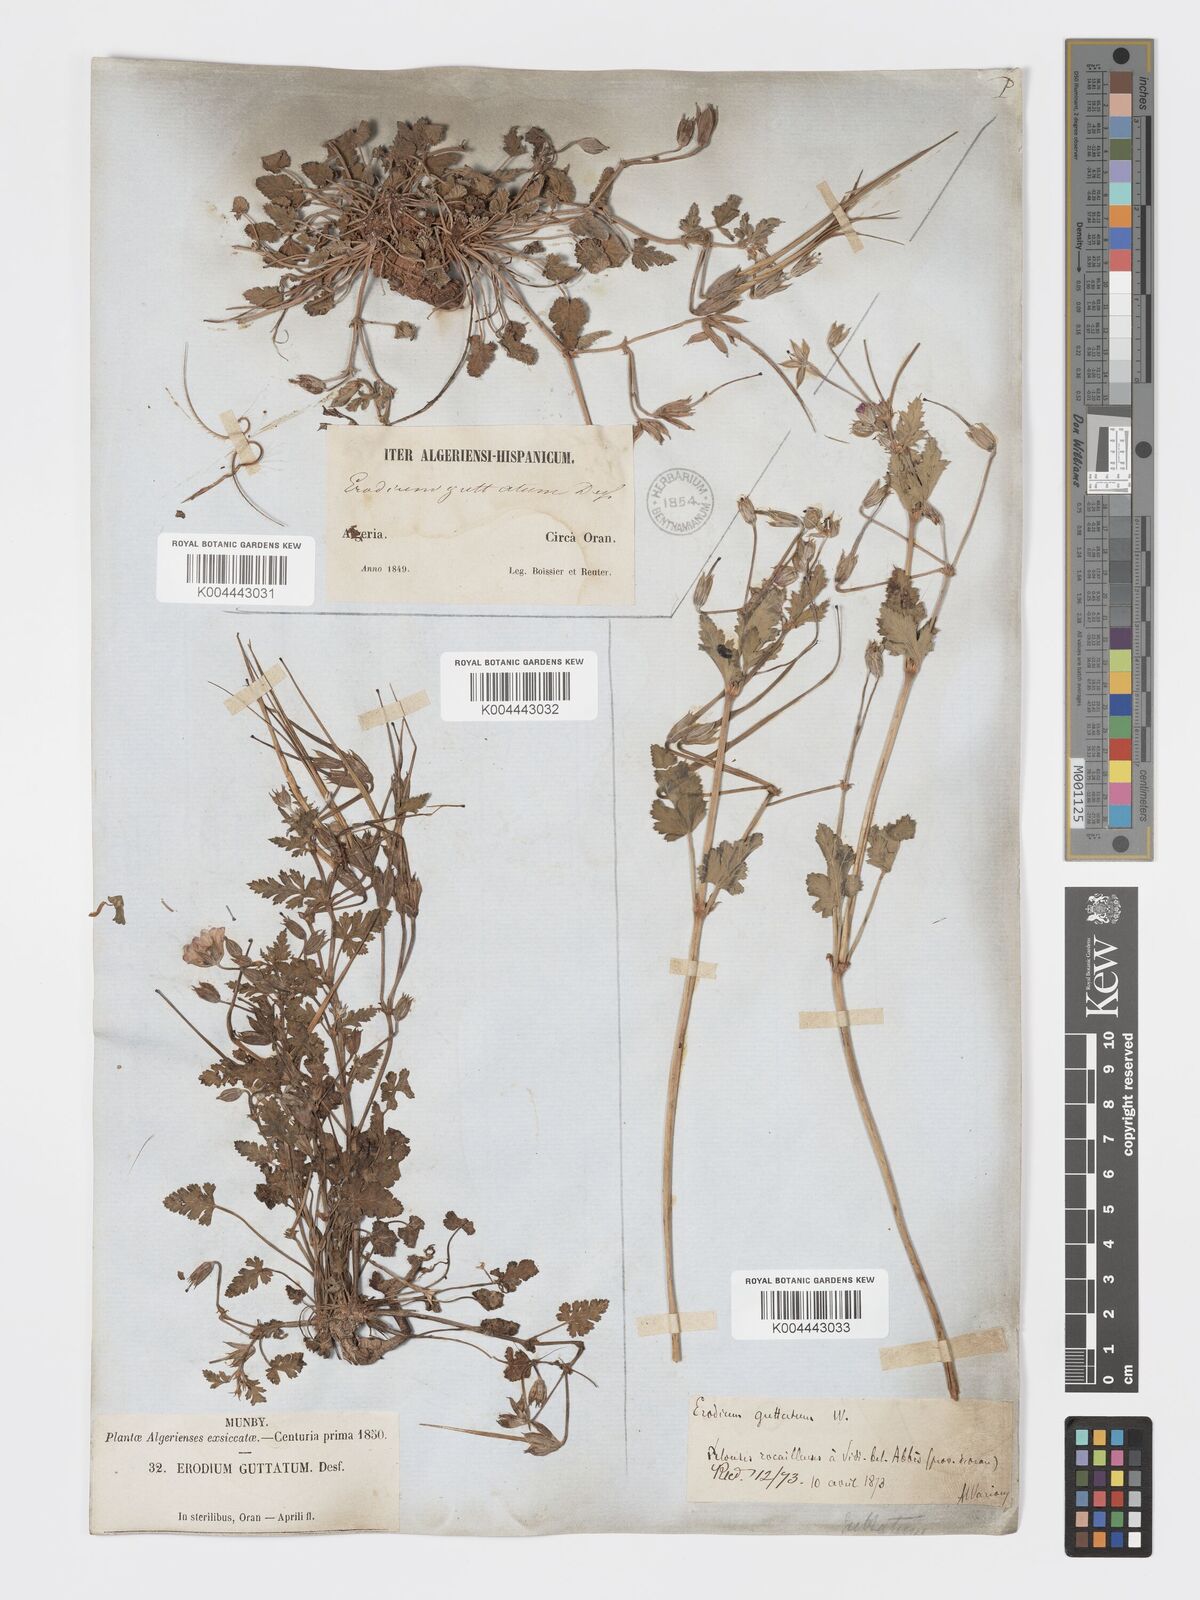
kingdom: Plantae
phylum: Tracheophyta
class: Magnoliopsida
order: Geraniales
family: Geraniaceae
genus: Erodium
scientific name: Erodium guttatum
